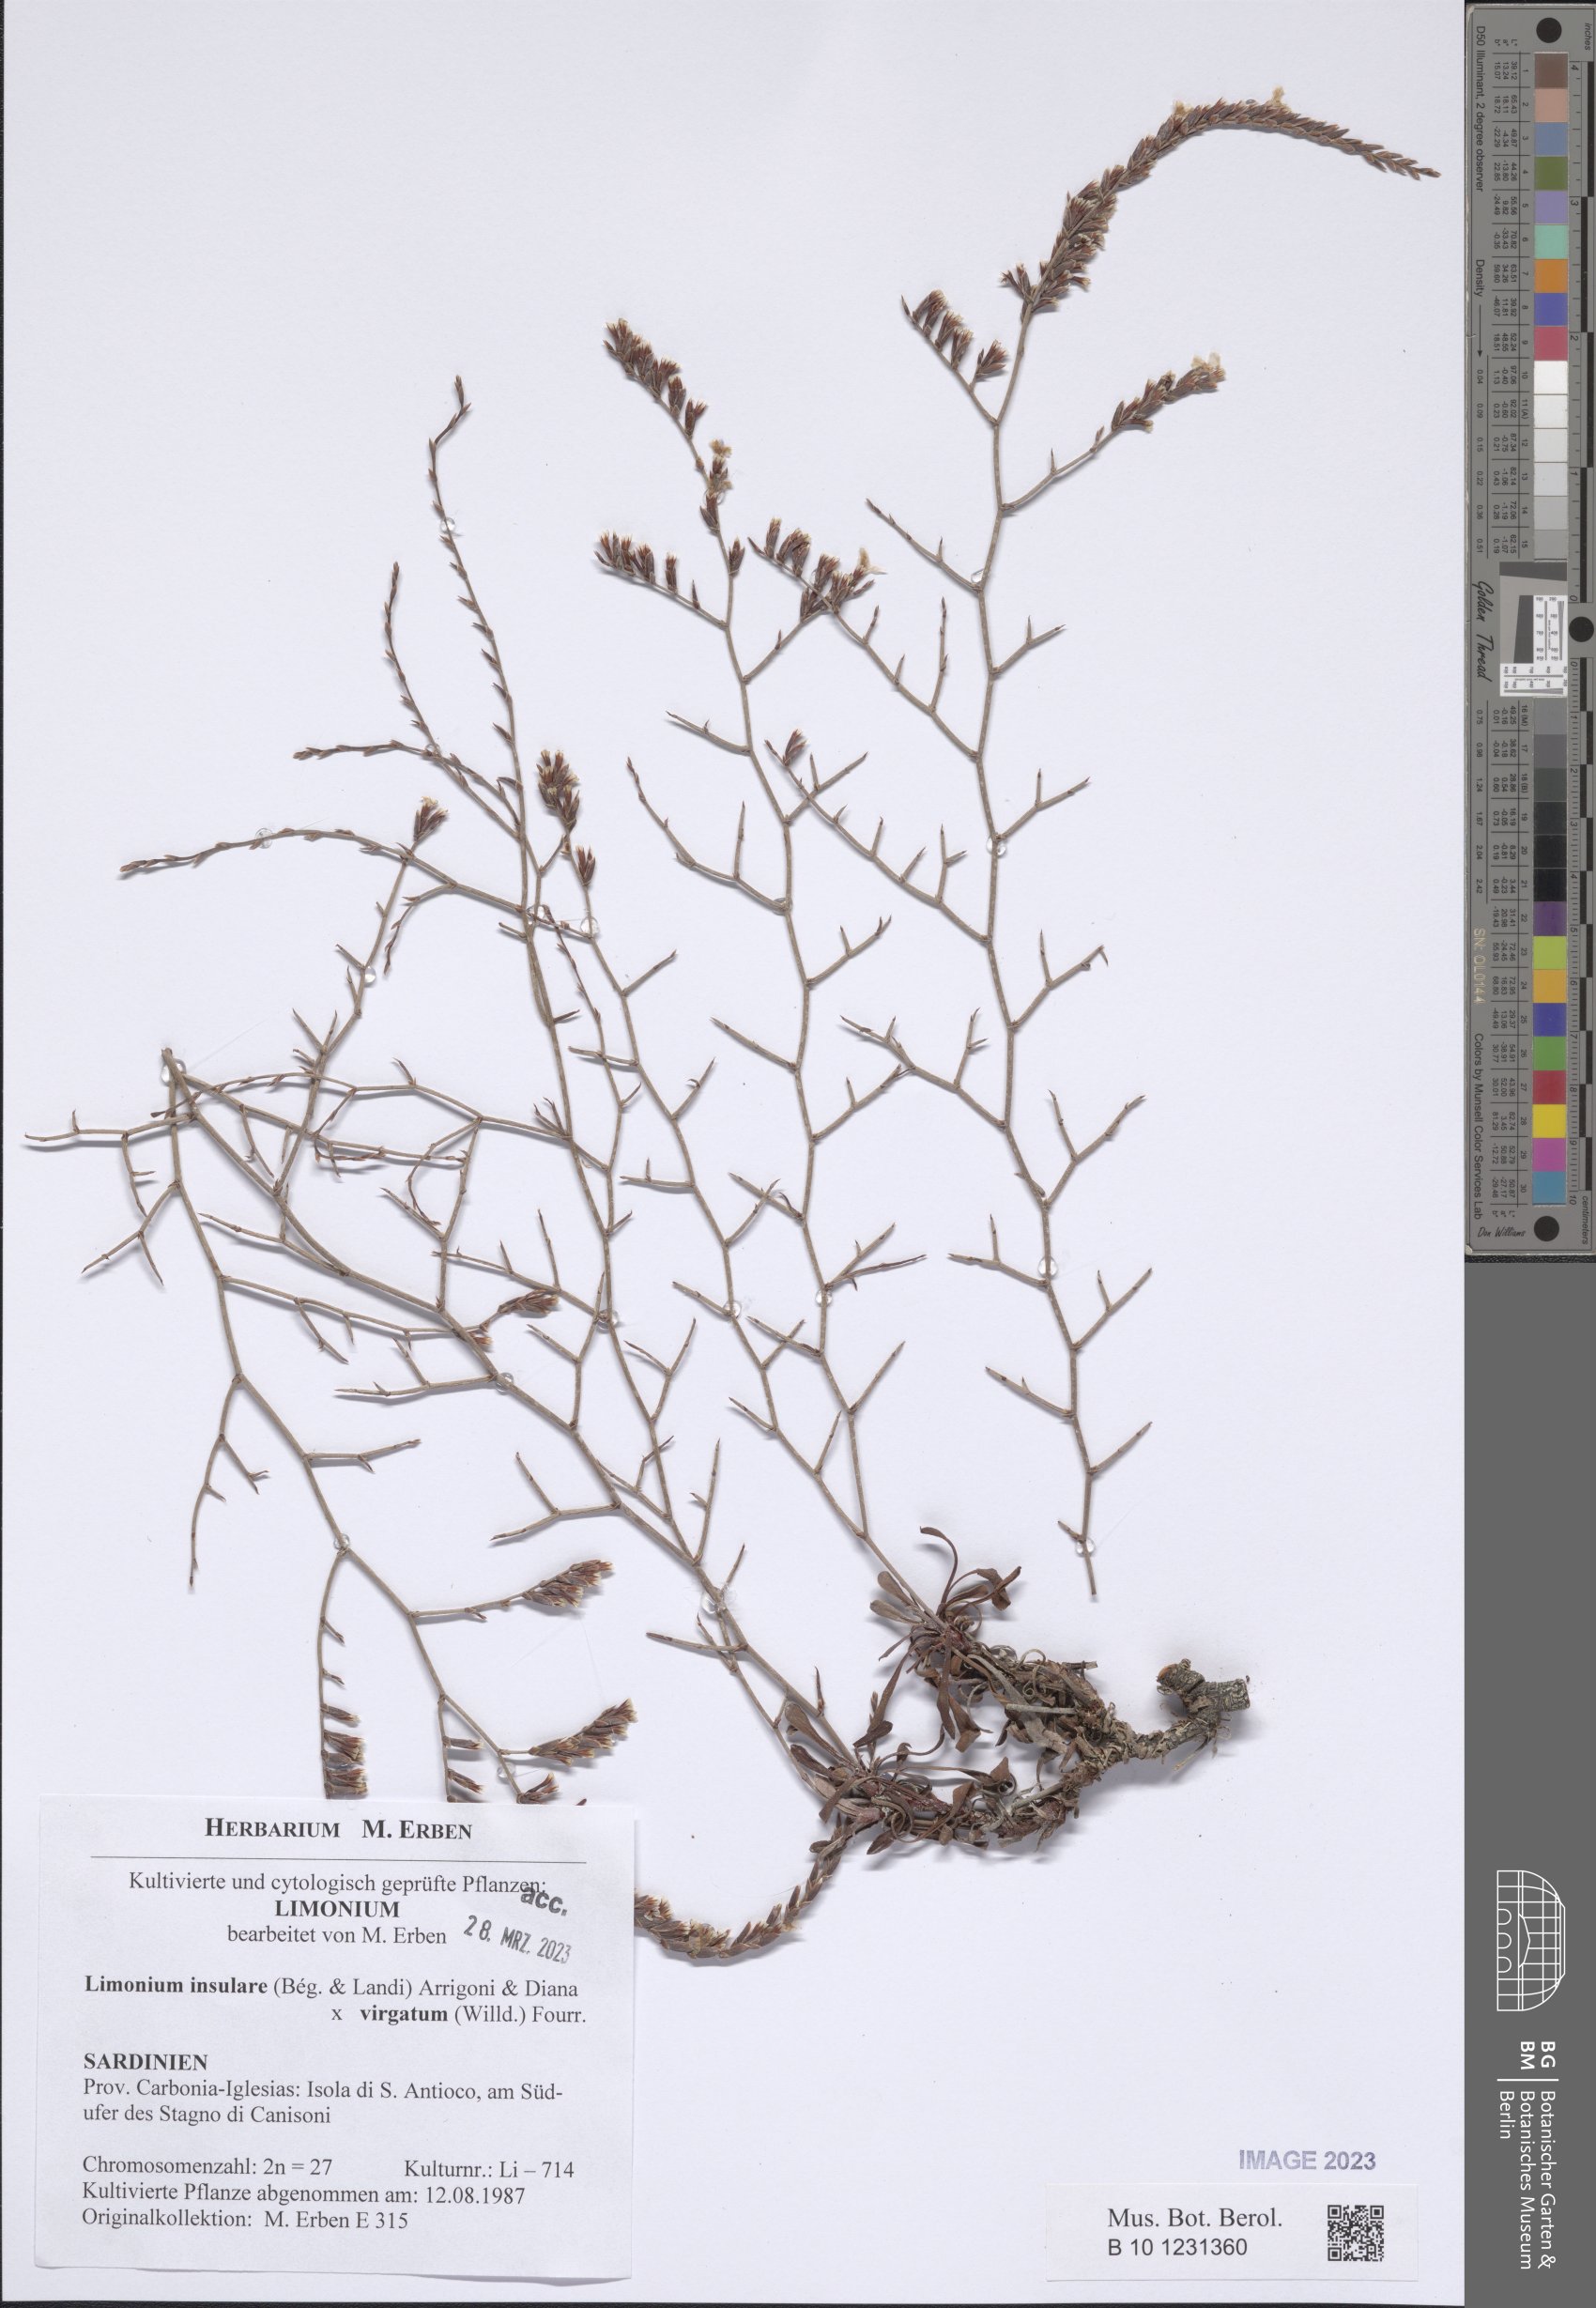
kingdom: Plantae
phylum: Tracheophyta
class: Magnoliopsida
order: Caryophyllales
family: Plumbaginaceae
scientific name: Plumbaginaceae
